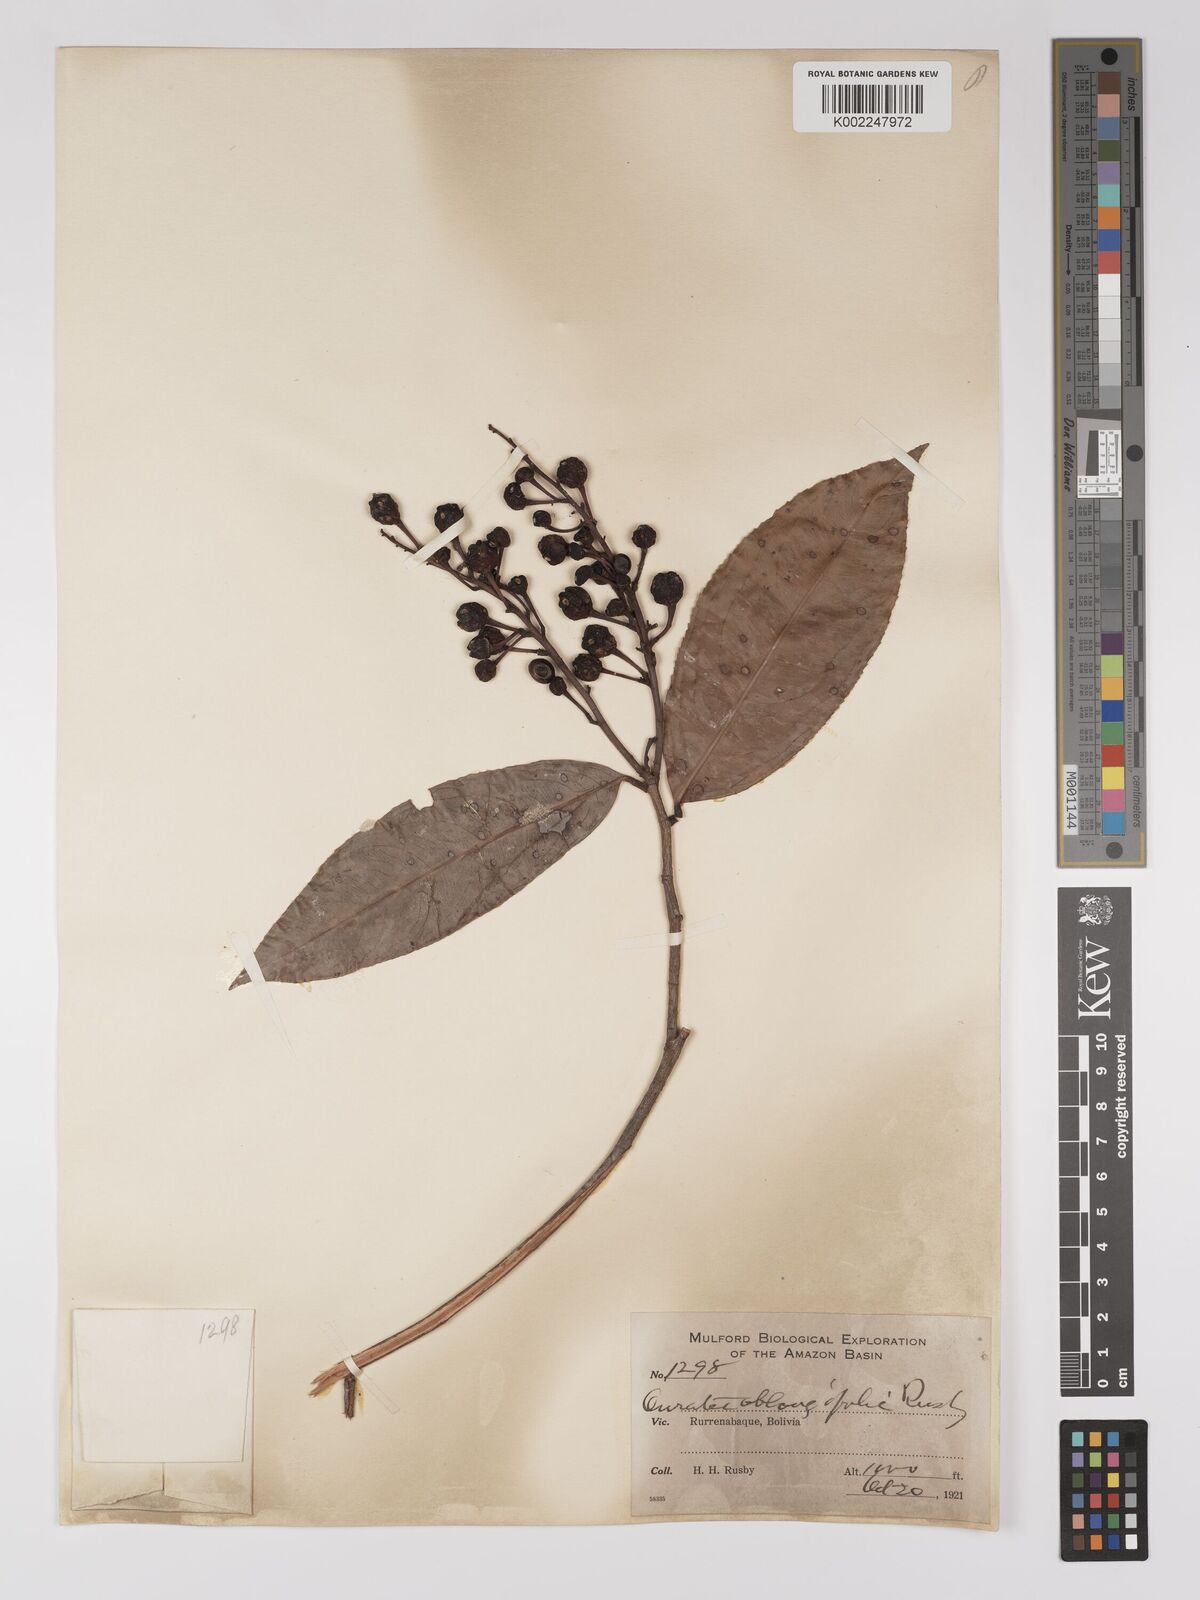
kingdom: Plantae
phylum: Tracheophyta
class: Magnoliopsida
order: Malpighiales
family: Ochnaceae
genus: Ouratea
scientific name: Ouratea oblongifolia
